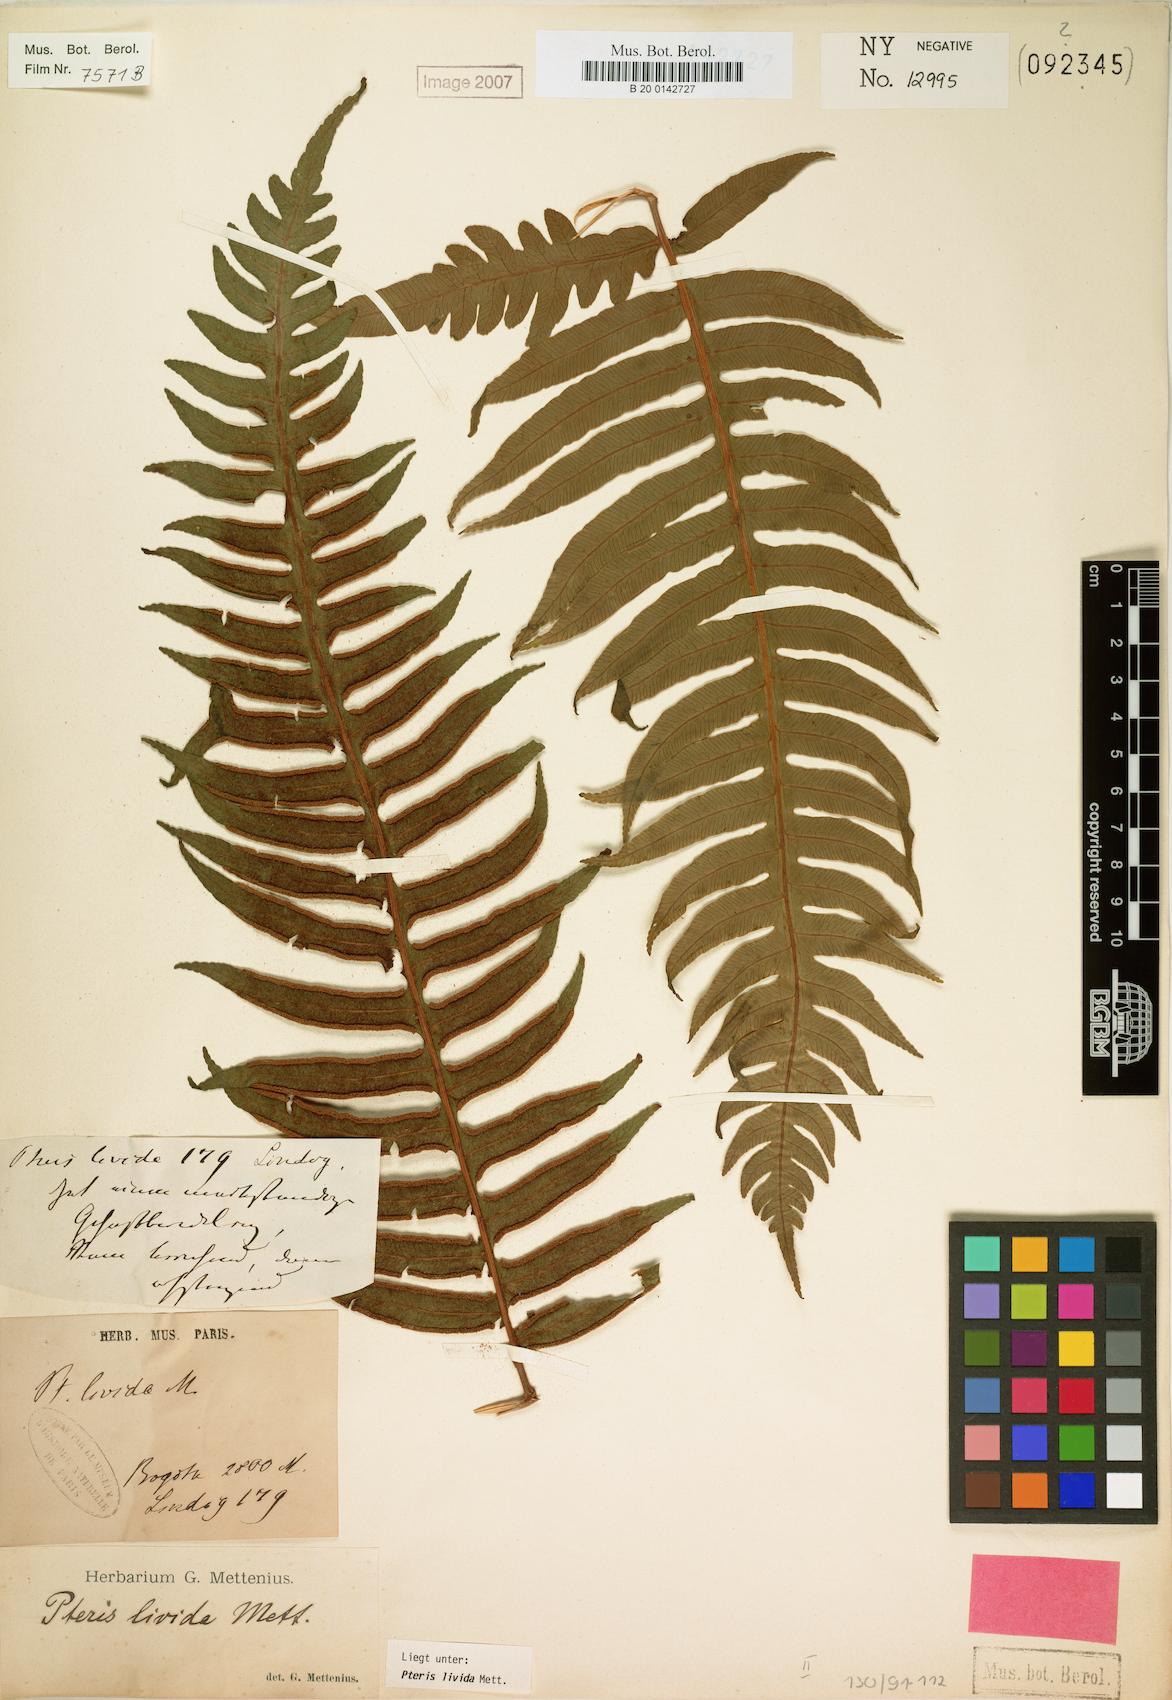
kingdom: Plantae
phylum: Tracheophyta
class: Polypodiopsida
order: Polypodiales
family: Pteridaceae
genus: Pteris
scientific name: Pteris livida
